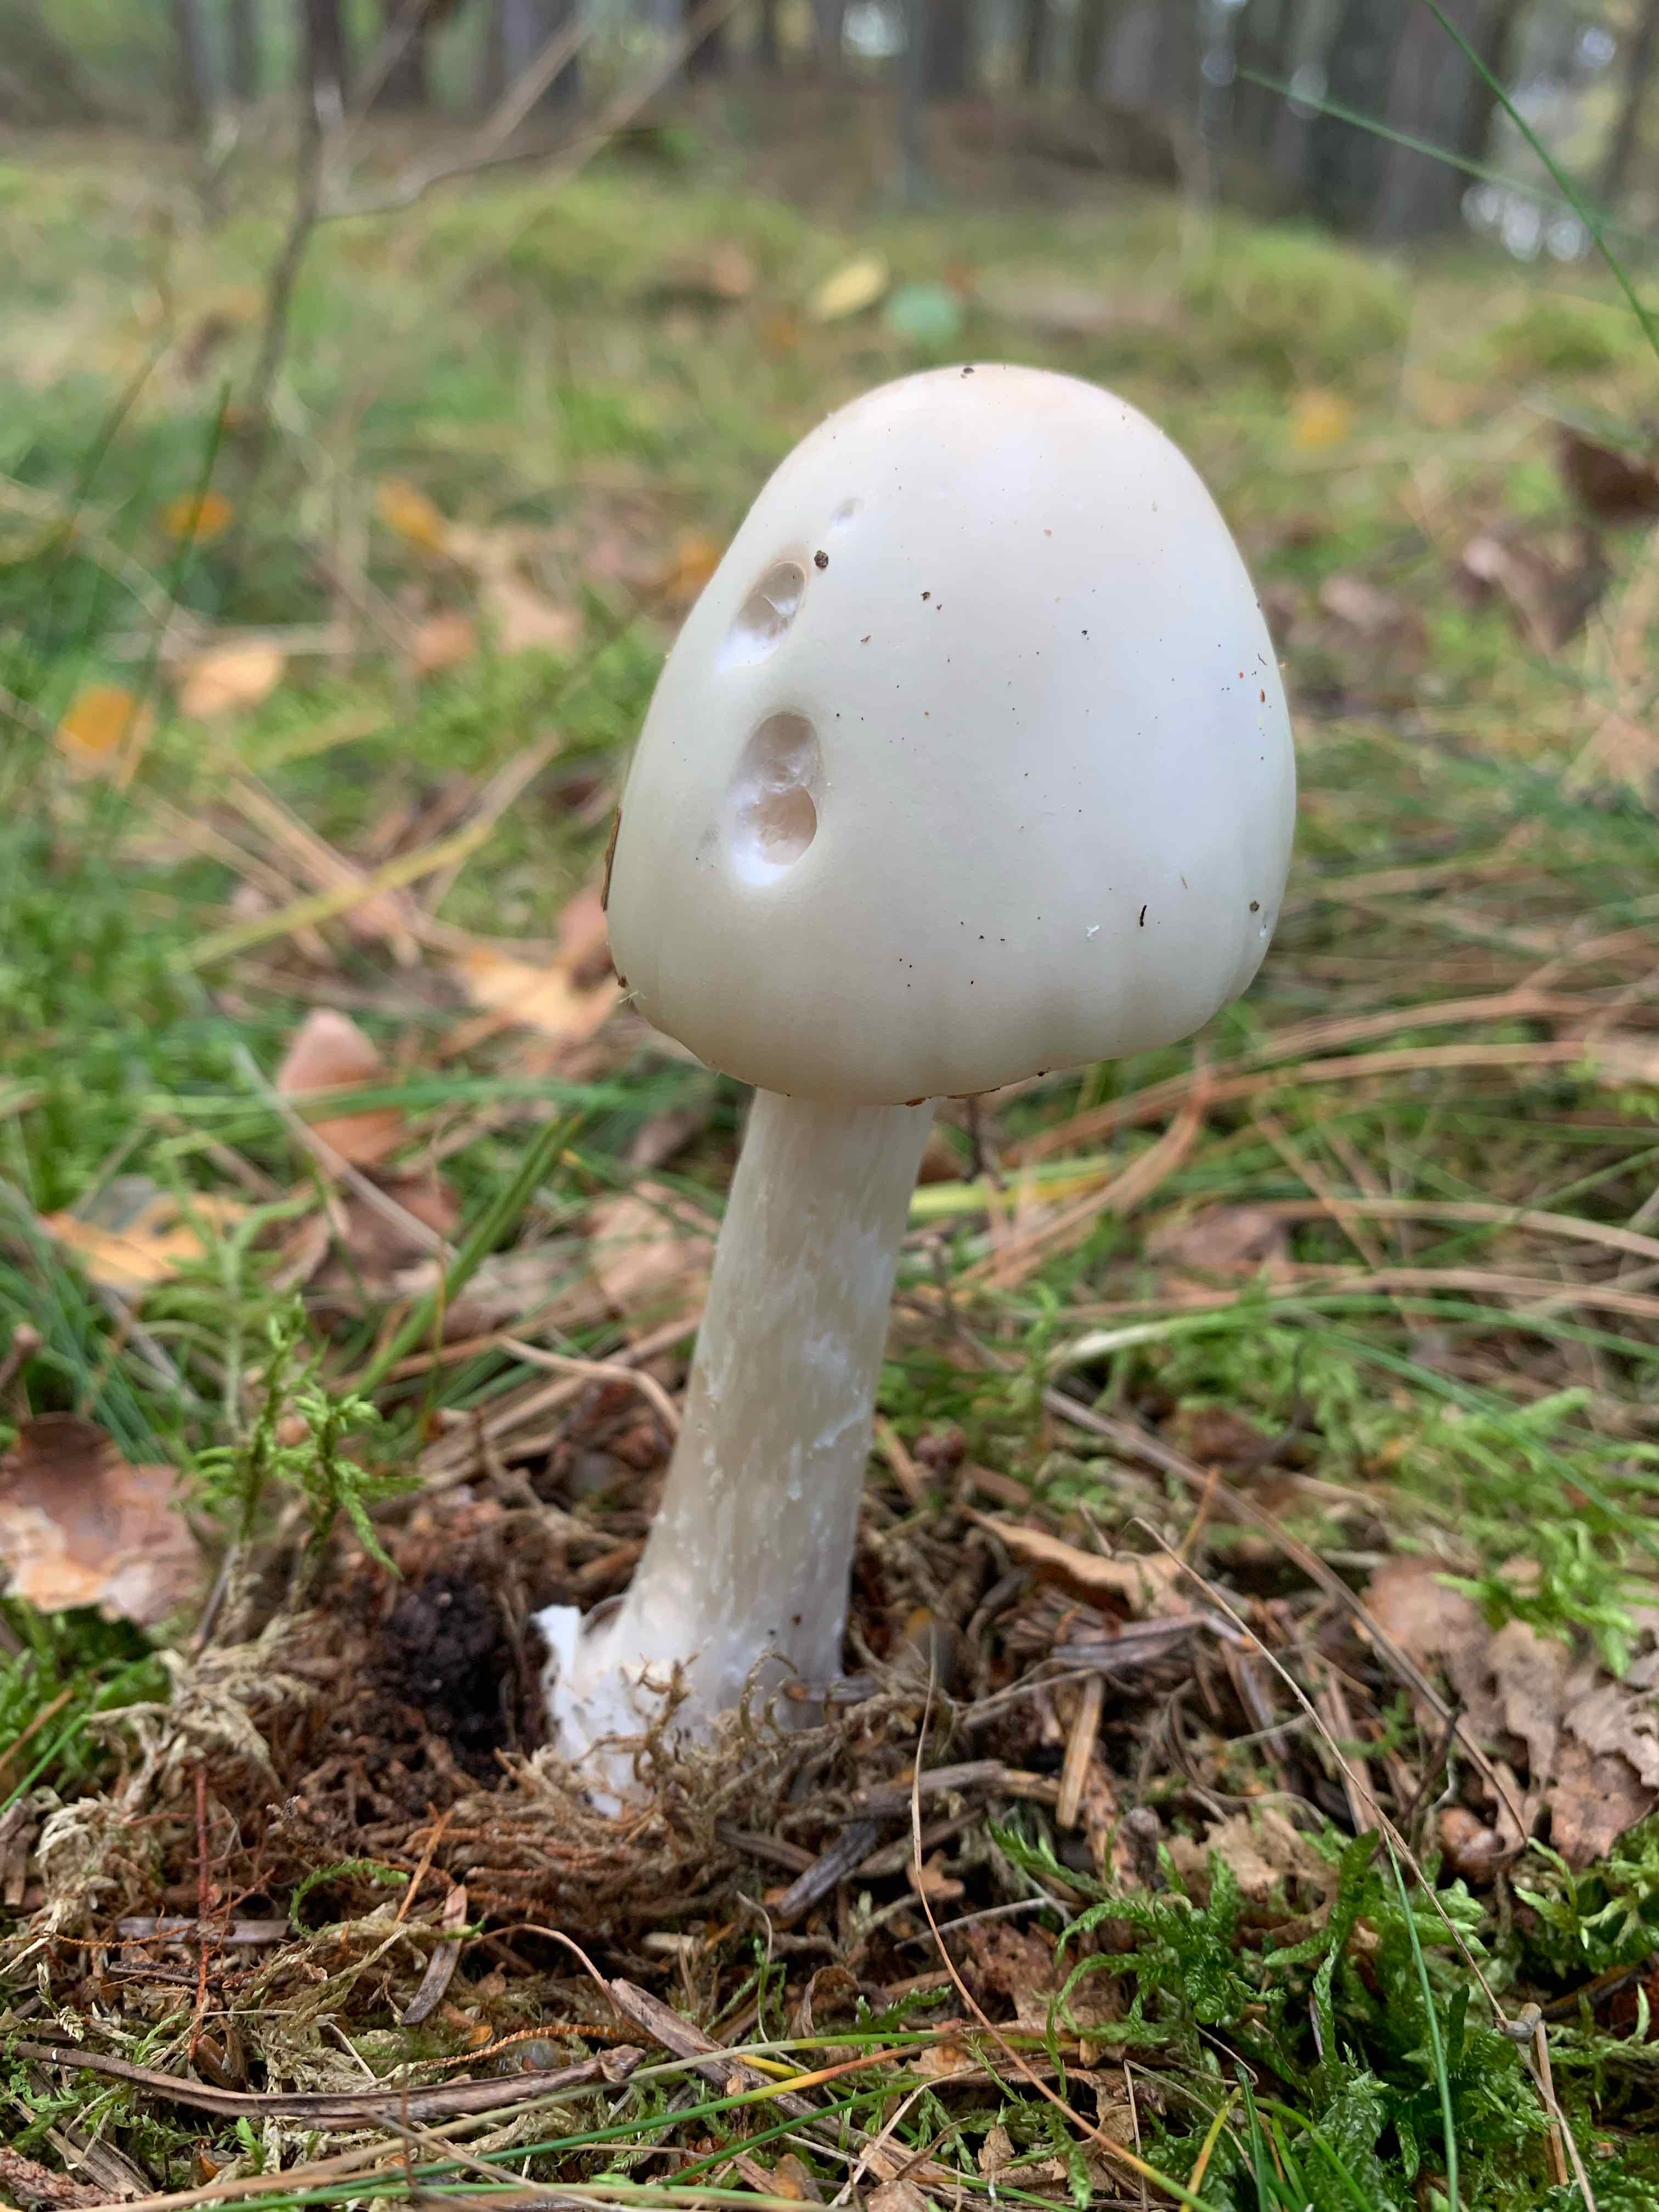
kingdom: Fungi
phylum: Basidiomycota
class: Agaricomycetes
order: Agaricales
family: Amanitaceae
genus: Amanita
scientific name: Amanita virosa
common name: snehvid fluesvamp
